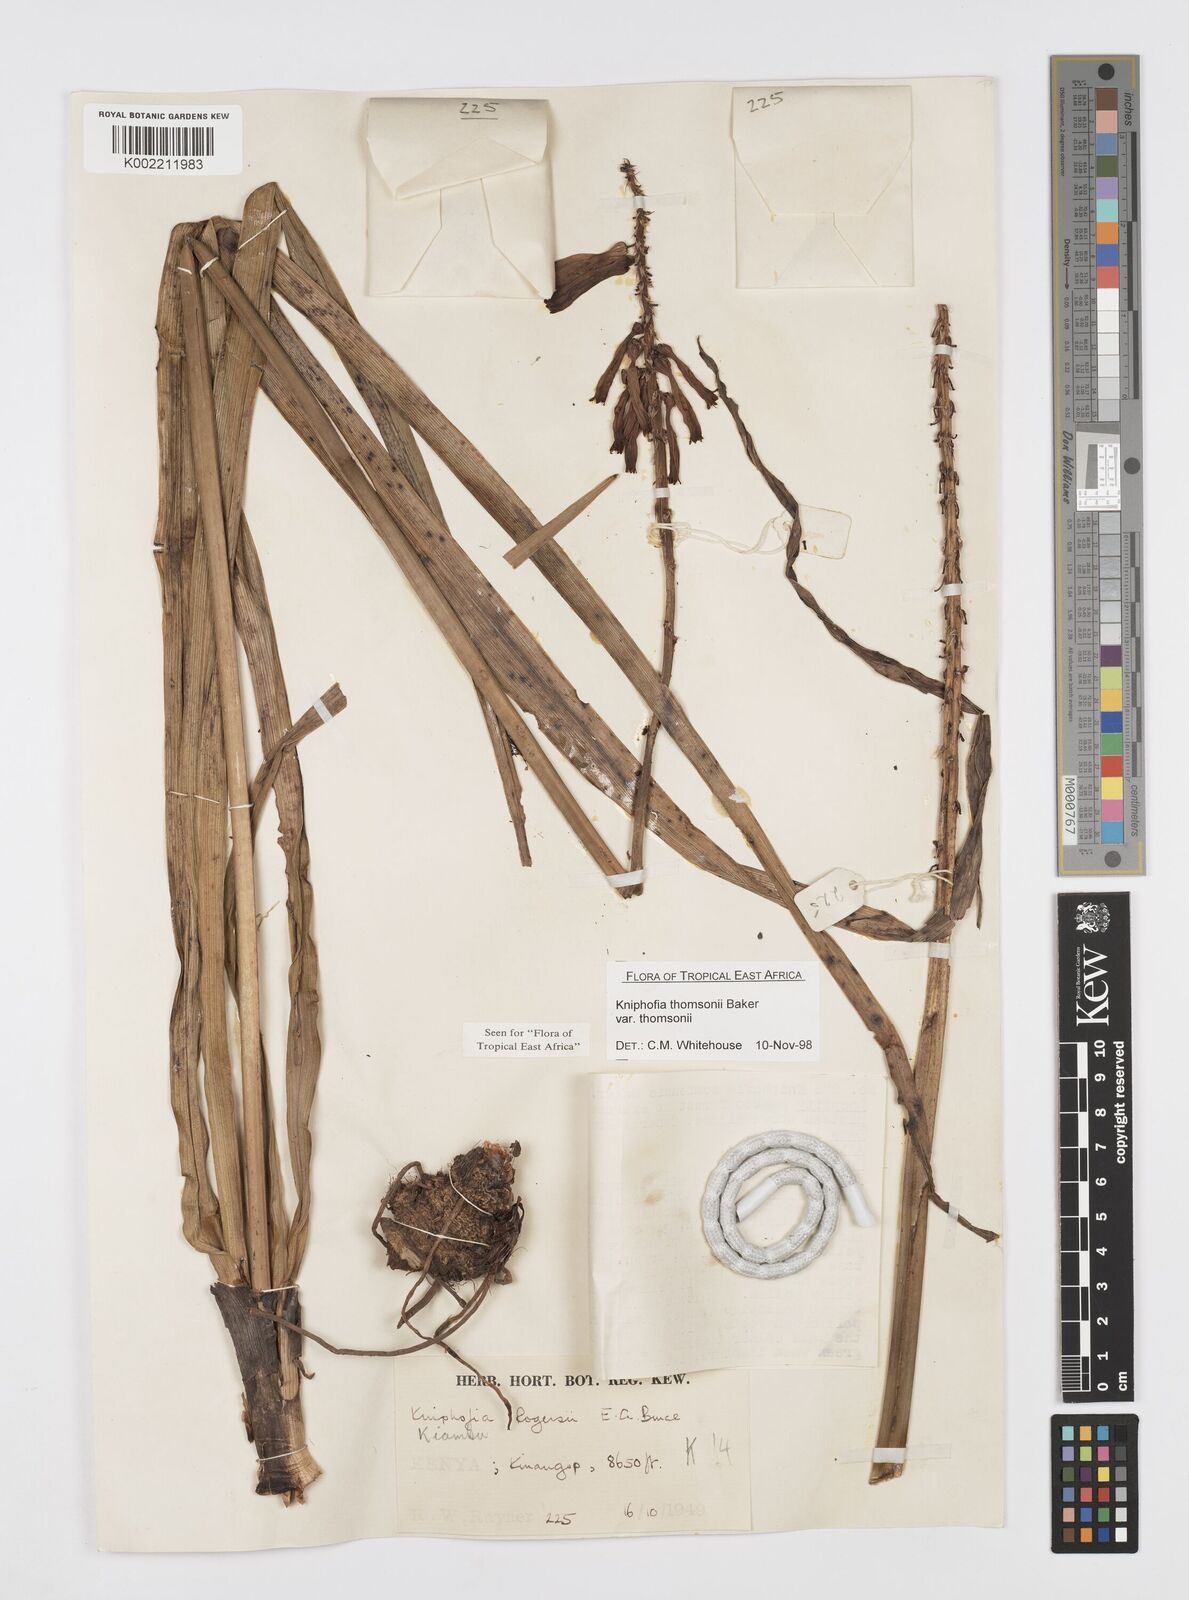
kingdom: Plantae
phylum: Tracheophyta
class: Liliopsida
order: Asparagales
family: Asphodelaceae
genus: Kniphofia
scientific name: Kniphofia thomsonii
